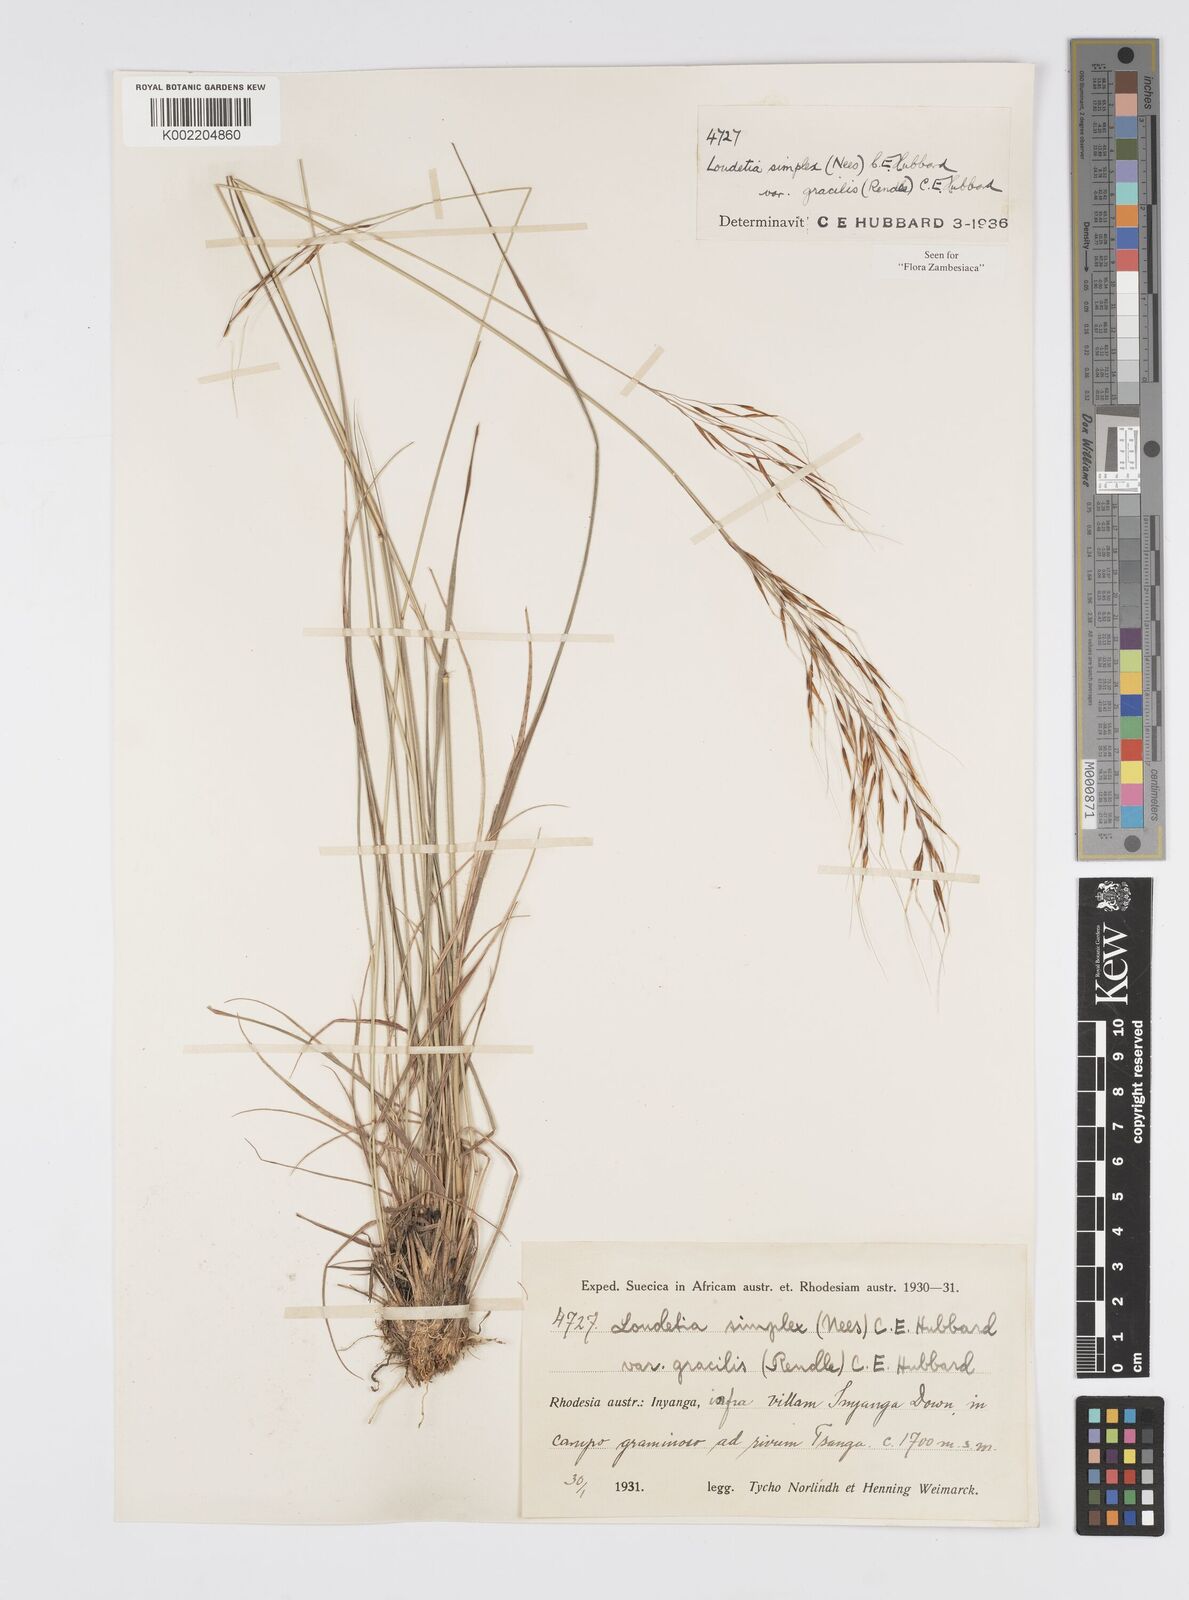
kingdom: Plantae
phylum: Tracheophyta
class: Liliopsida
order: Poales
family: Poaceae
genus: Loudetia
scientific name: Loudetia simplex
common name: Common russet grass
